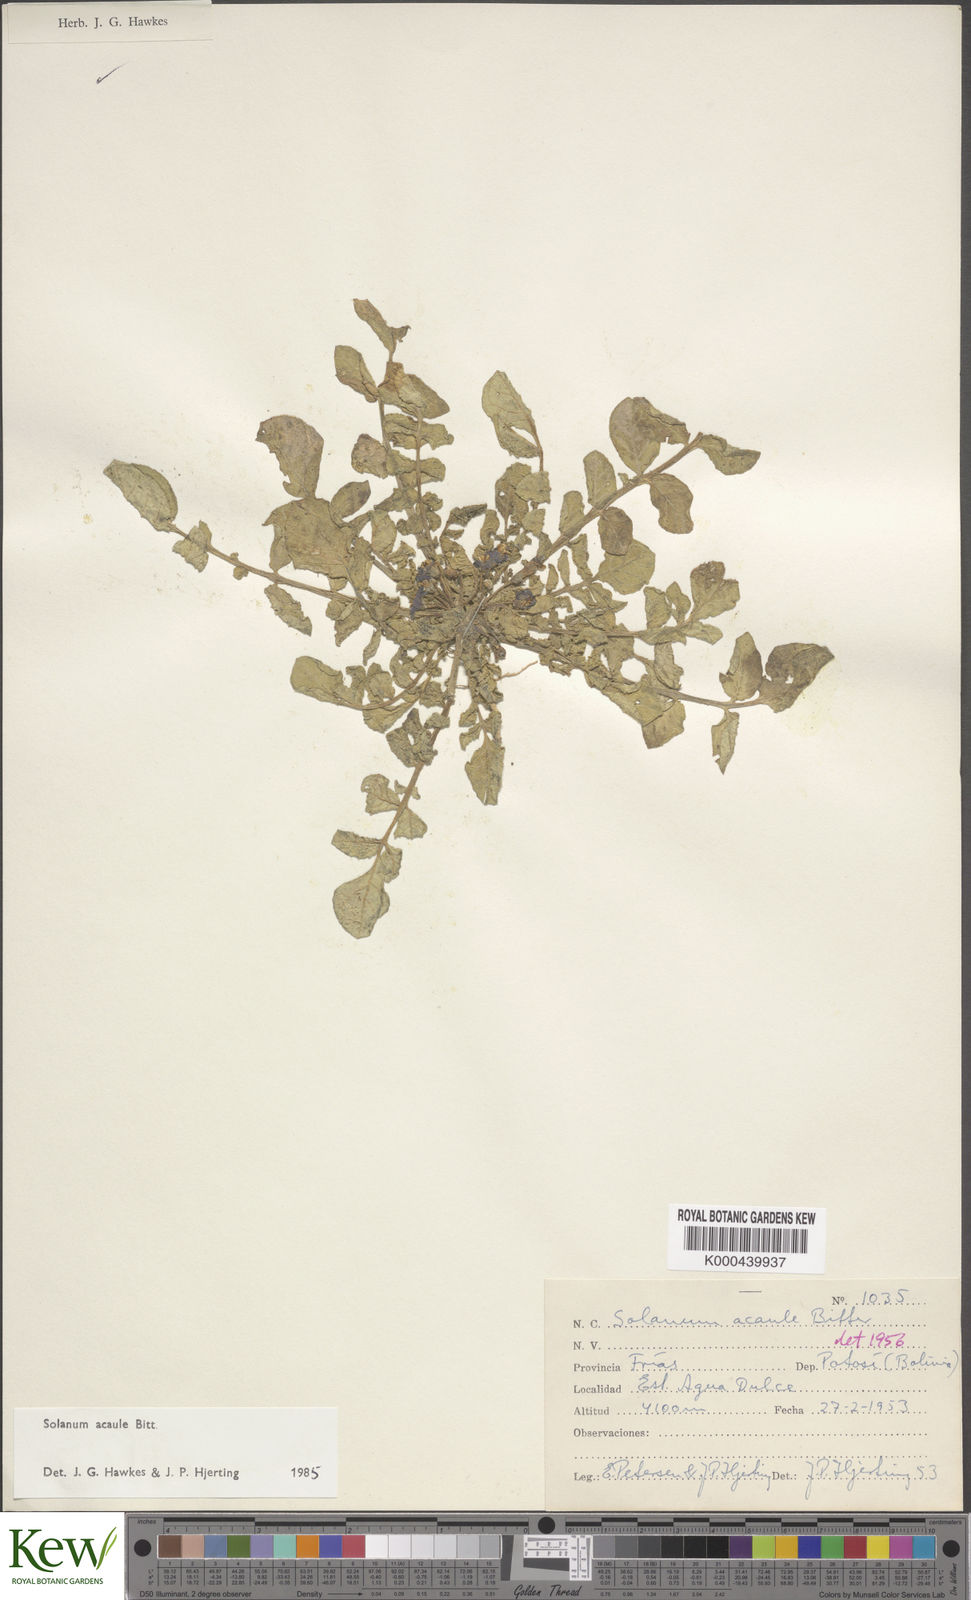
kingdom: Plantae
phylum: Tracheophyta
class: Magnoliopsida
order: Solanales
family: Solanaceae
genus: Solanum
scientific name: Solanum acaule
